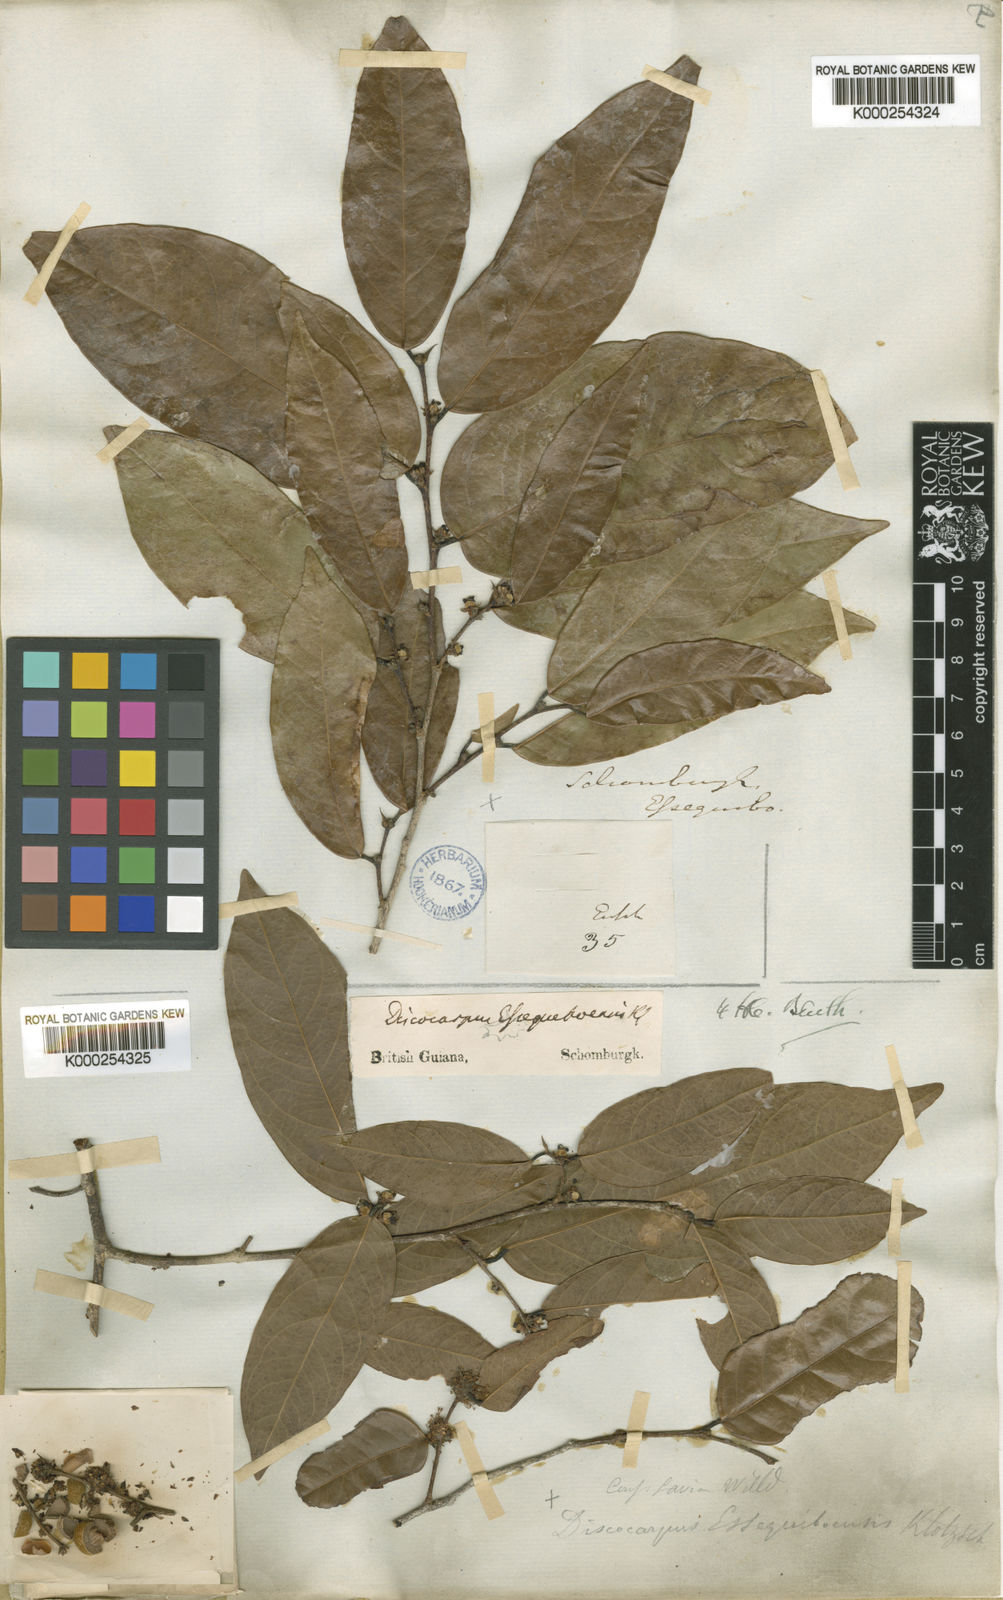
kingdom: Plantae
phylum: Tracheophyta
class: Magnoliopsida
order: Malpighiales
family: Phyllanthaceae
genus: Discocarpus
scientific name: Discocarpus essequeboensis
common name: Sqaure-wood
